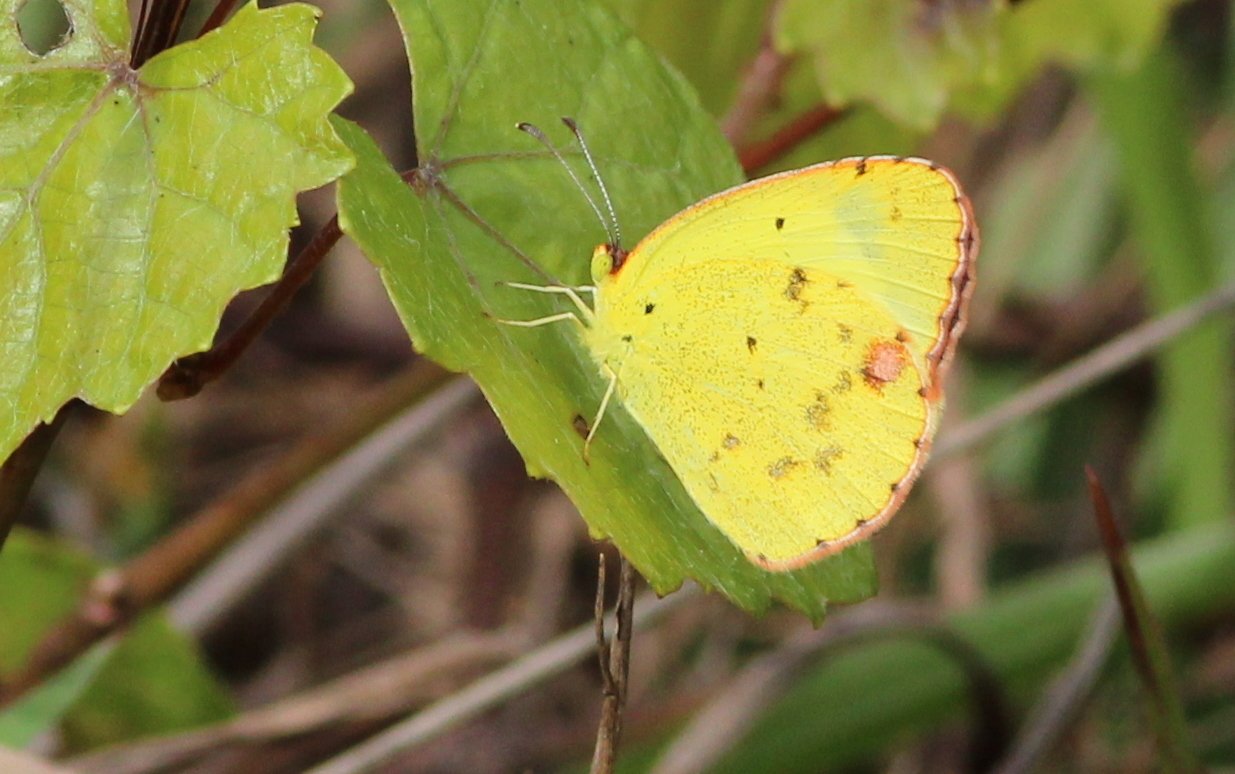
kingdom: Animalia
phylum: Arthropoda
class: Insecta
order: Lepidoptera
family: Pieridae
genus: Pyrisitia
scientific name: Pyrisitia lisa
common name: Little Yellow
